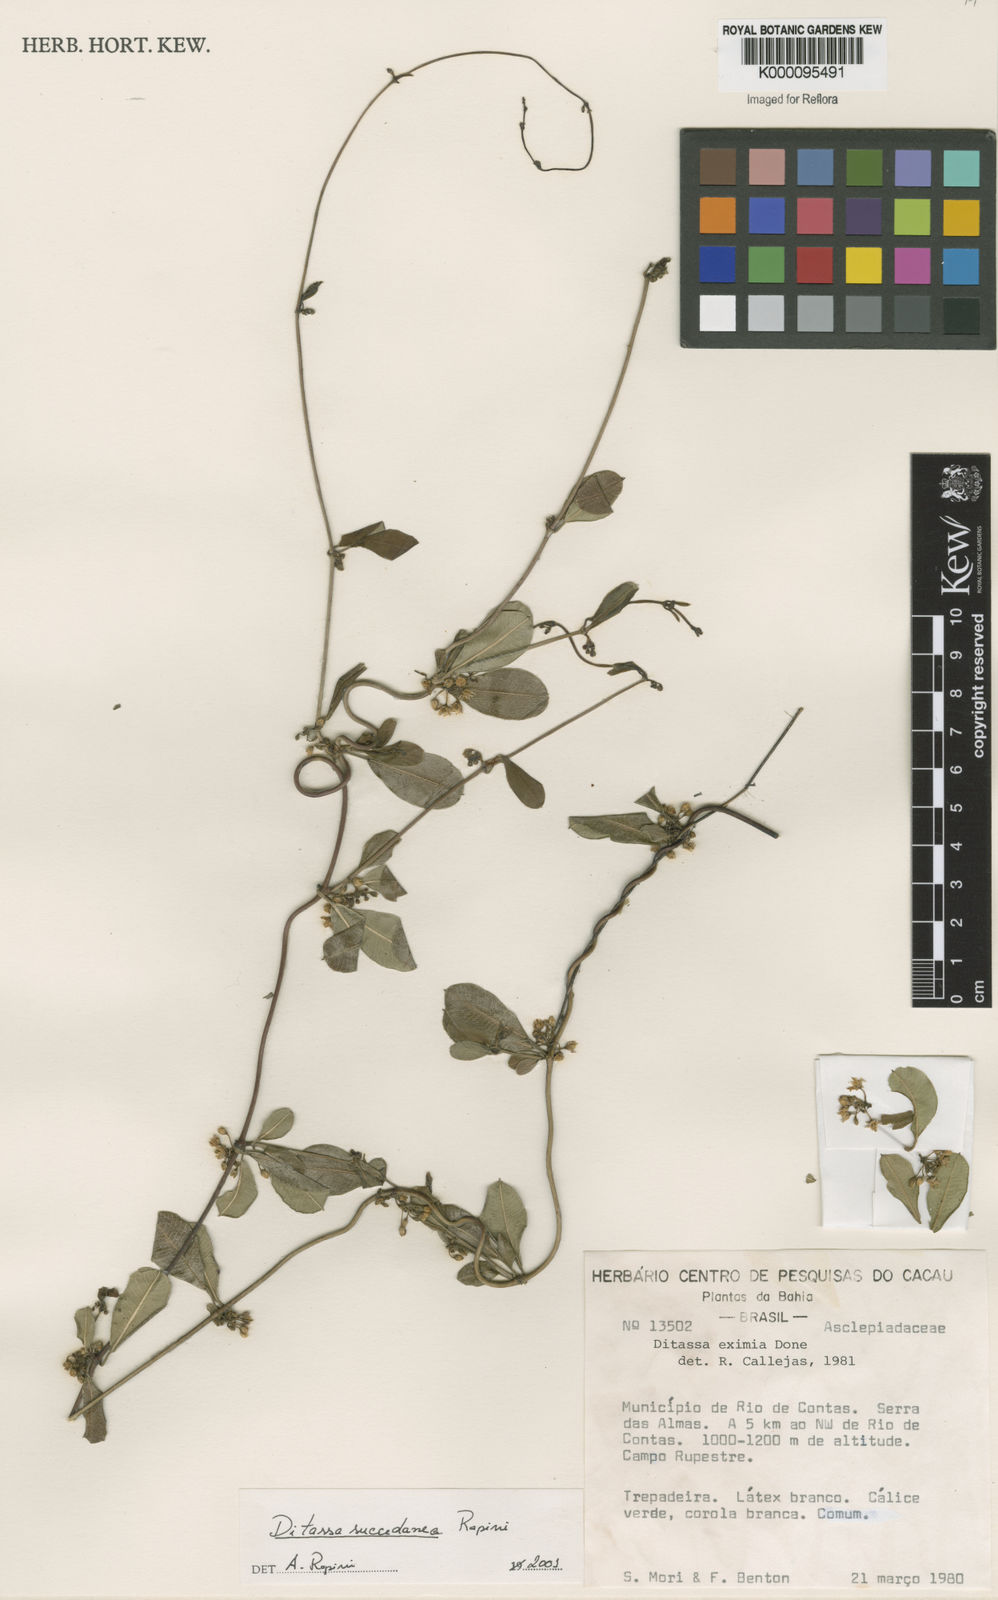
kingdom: Plantae
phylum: Tracheophyta
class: Magnoliopsida
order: Gentianales
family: Apocynaceae
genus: Ditassa
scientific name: Ditassa succedanea
